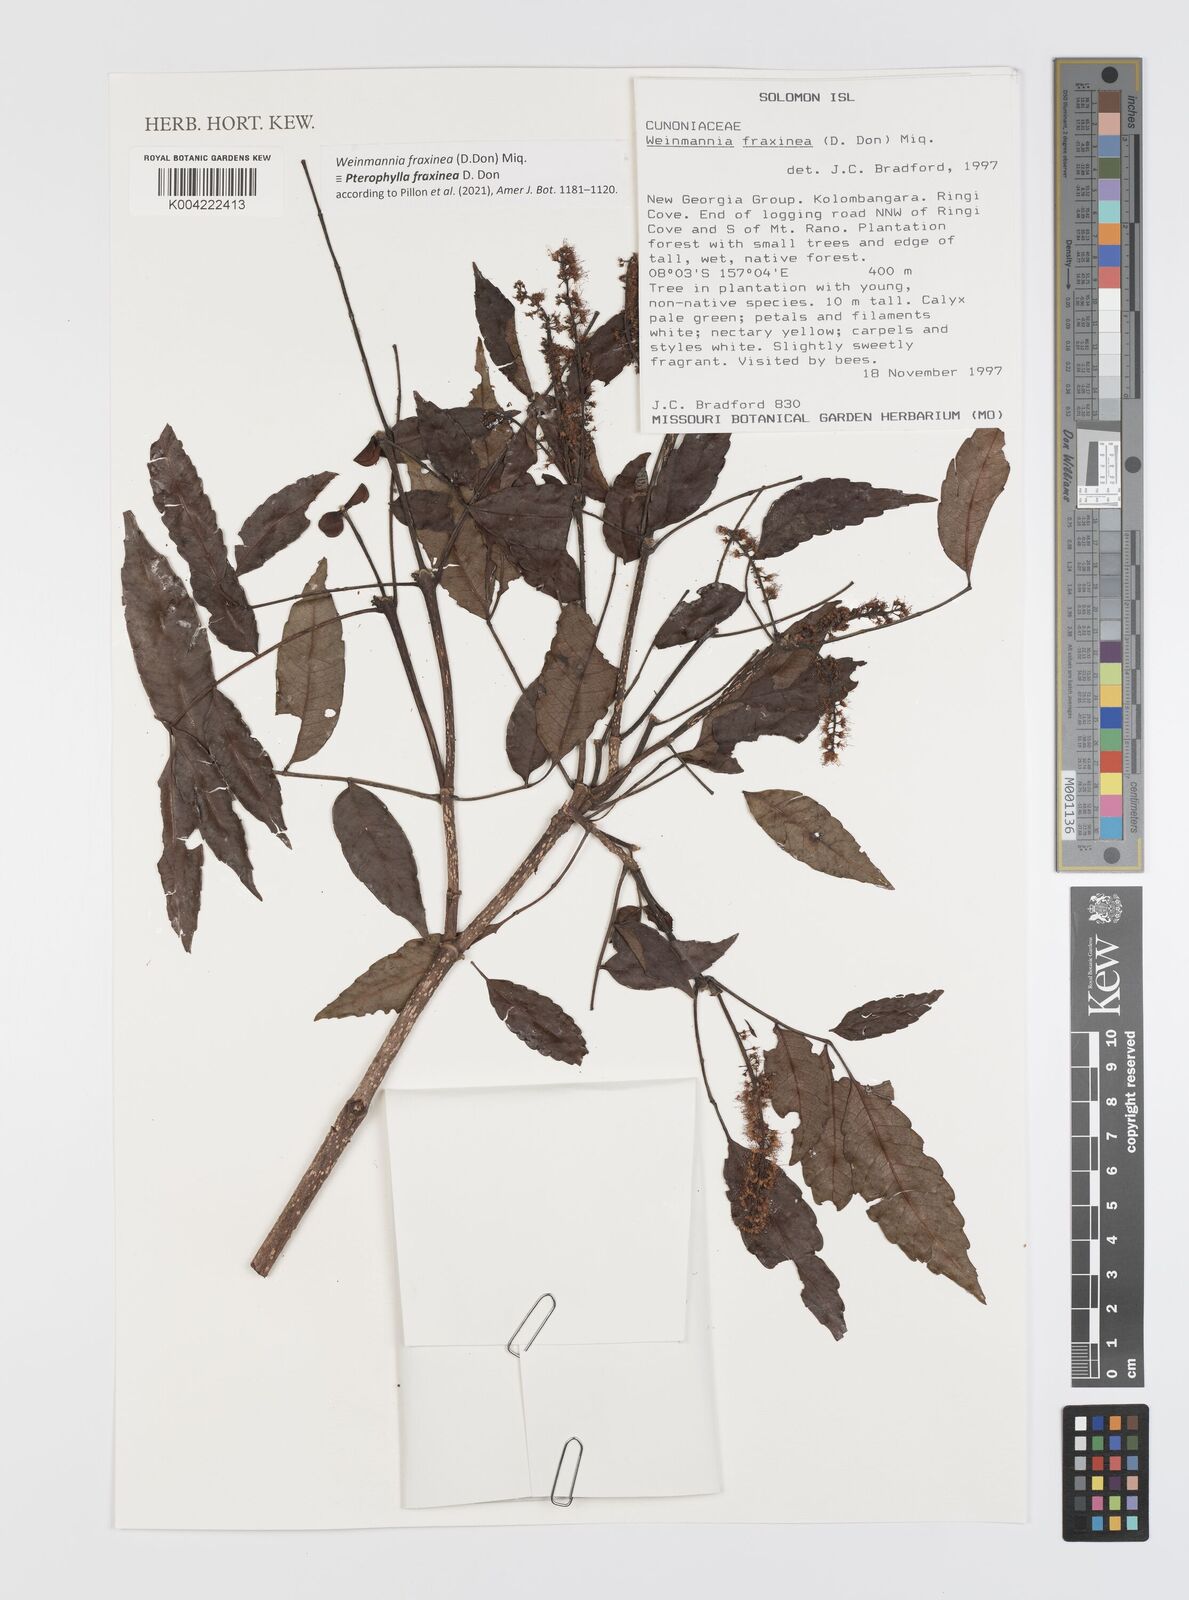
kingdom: Plantae
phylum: Tracheophyta
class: Magnoliopsida
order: Oxalidales
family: Cunoniaceae
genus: Pterophylla
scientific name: Pterophylla fraxinea
